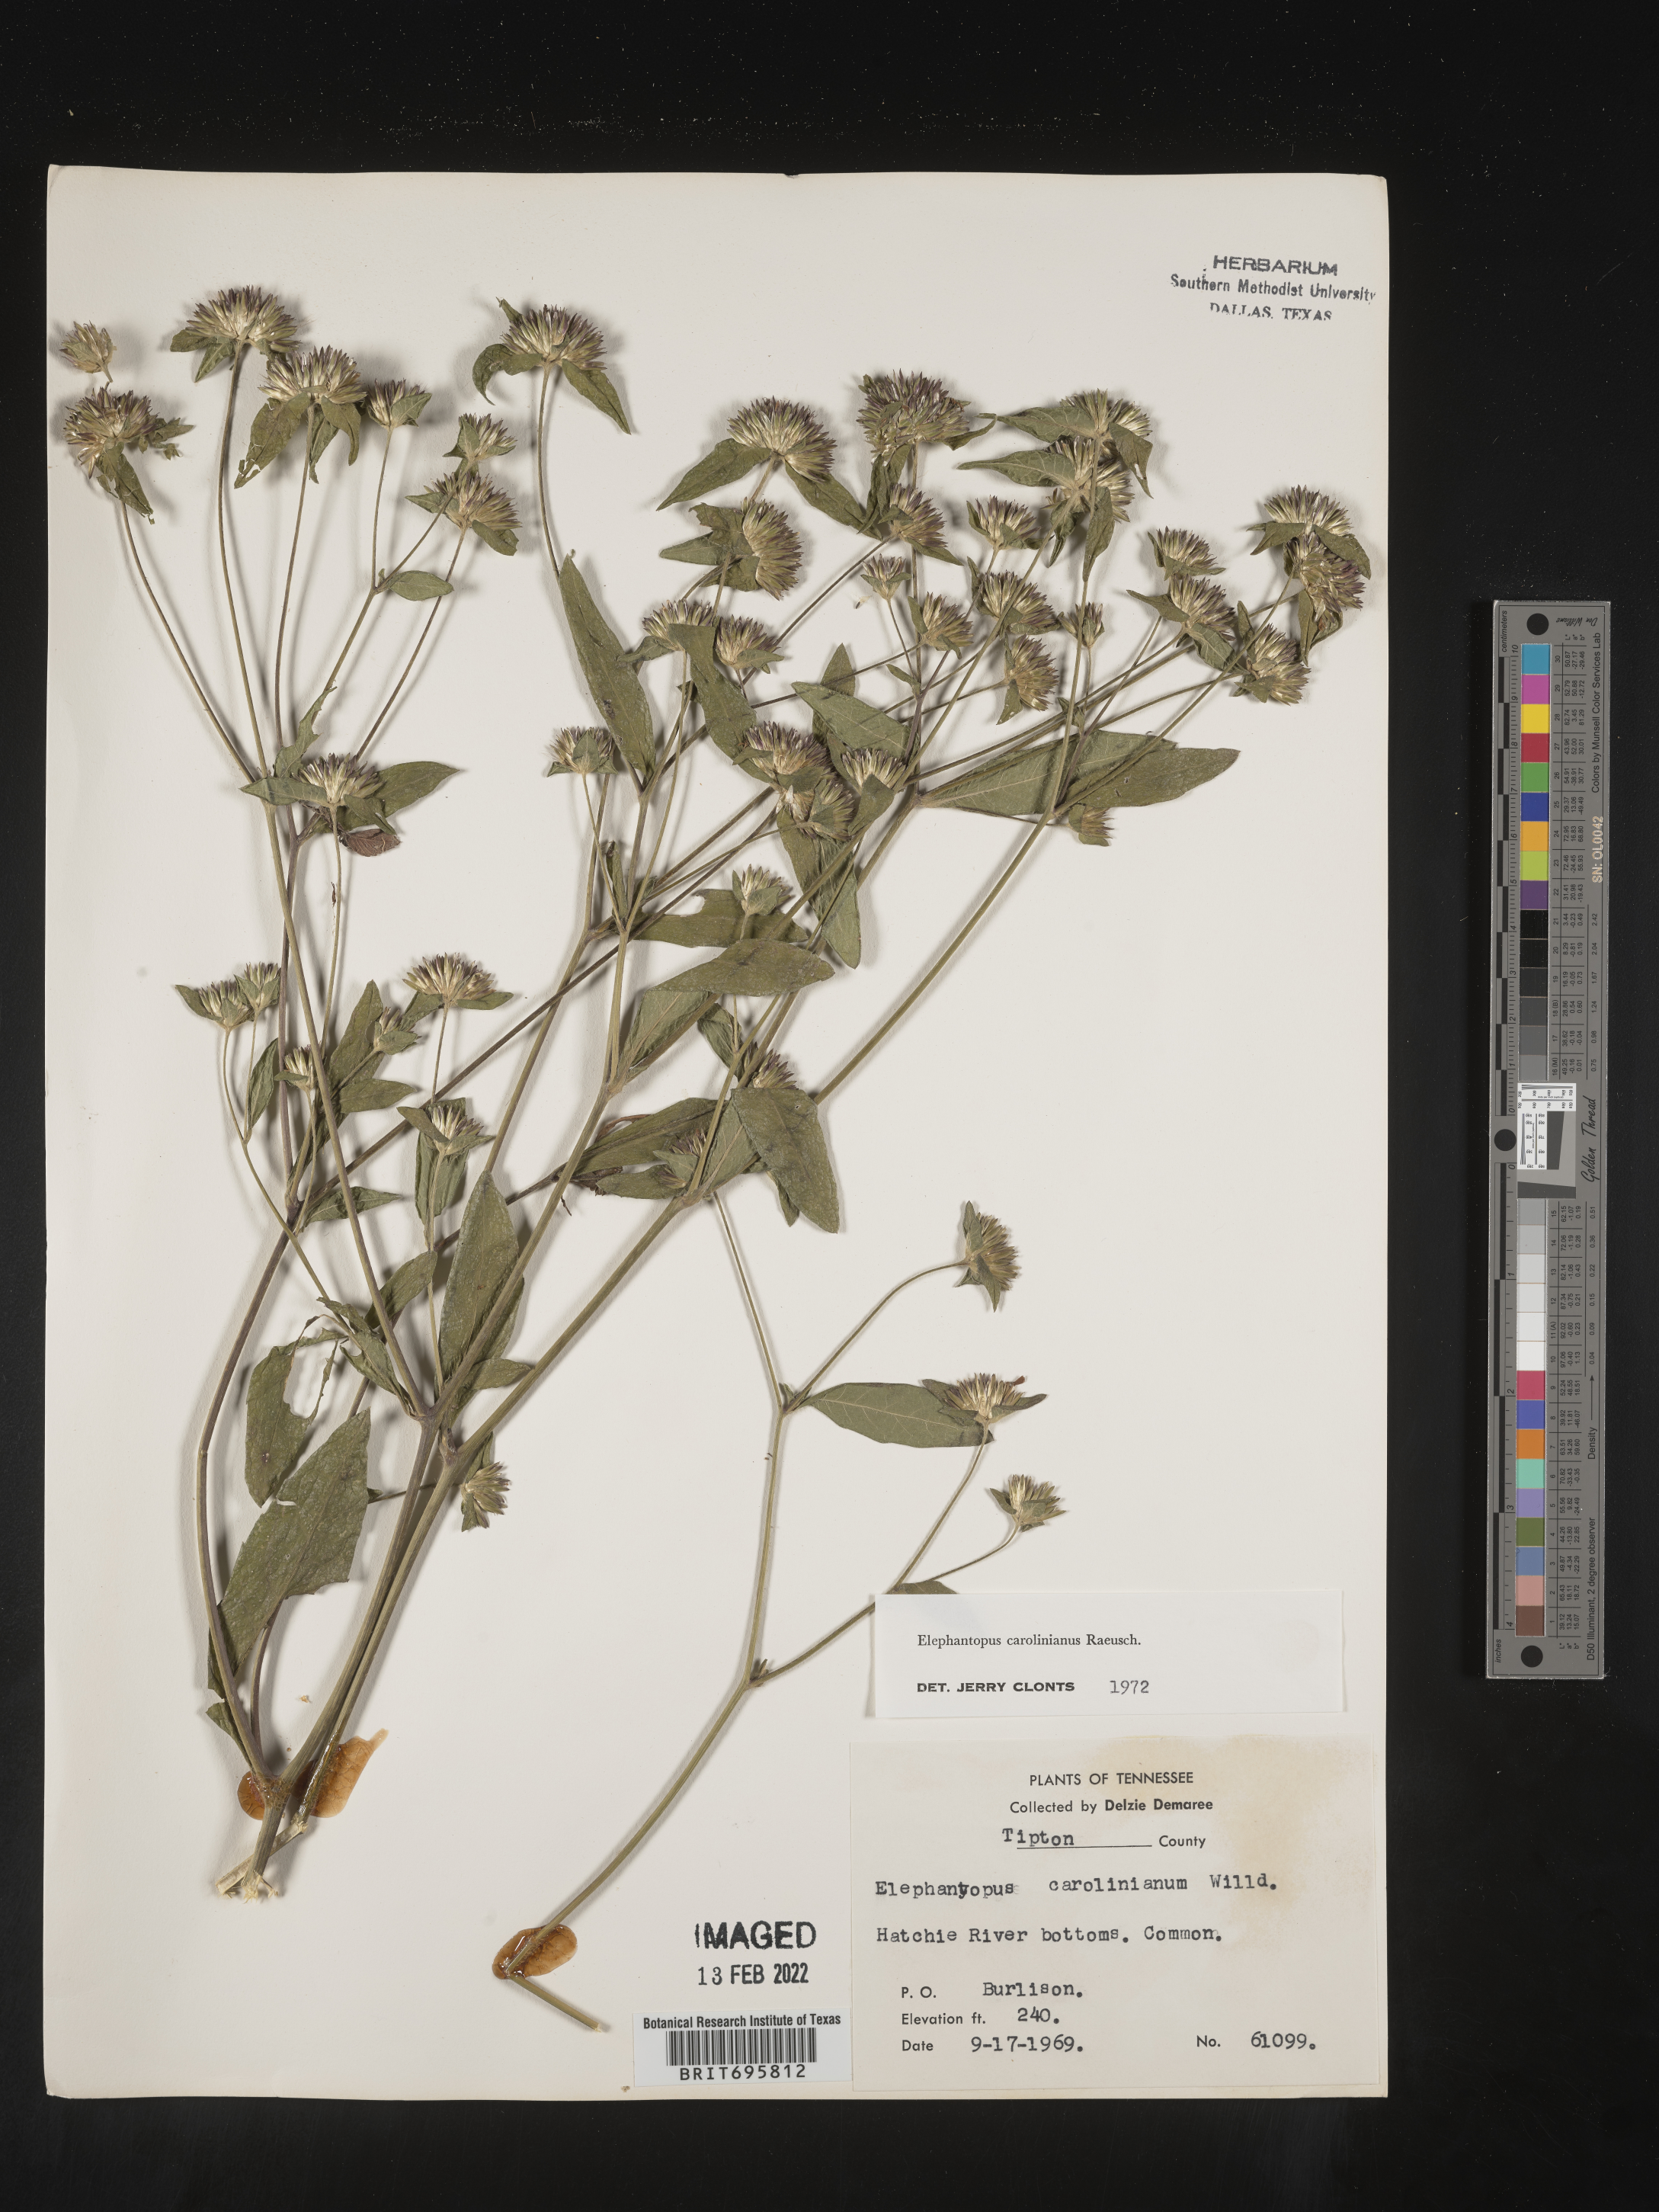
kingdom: Plantae
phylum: Tracheophyta
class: Magnoliopsida
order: Asterales
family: Asteraceae
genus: Elephantopus
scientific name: Elephantopus carolinianus
